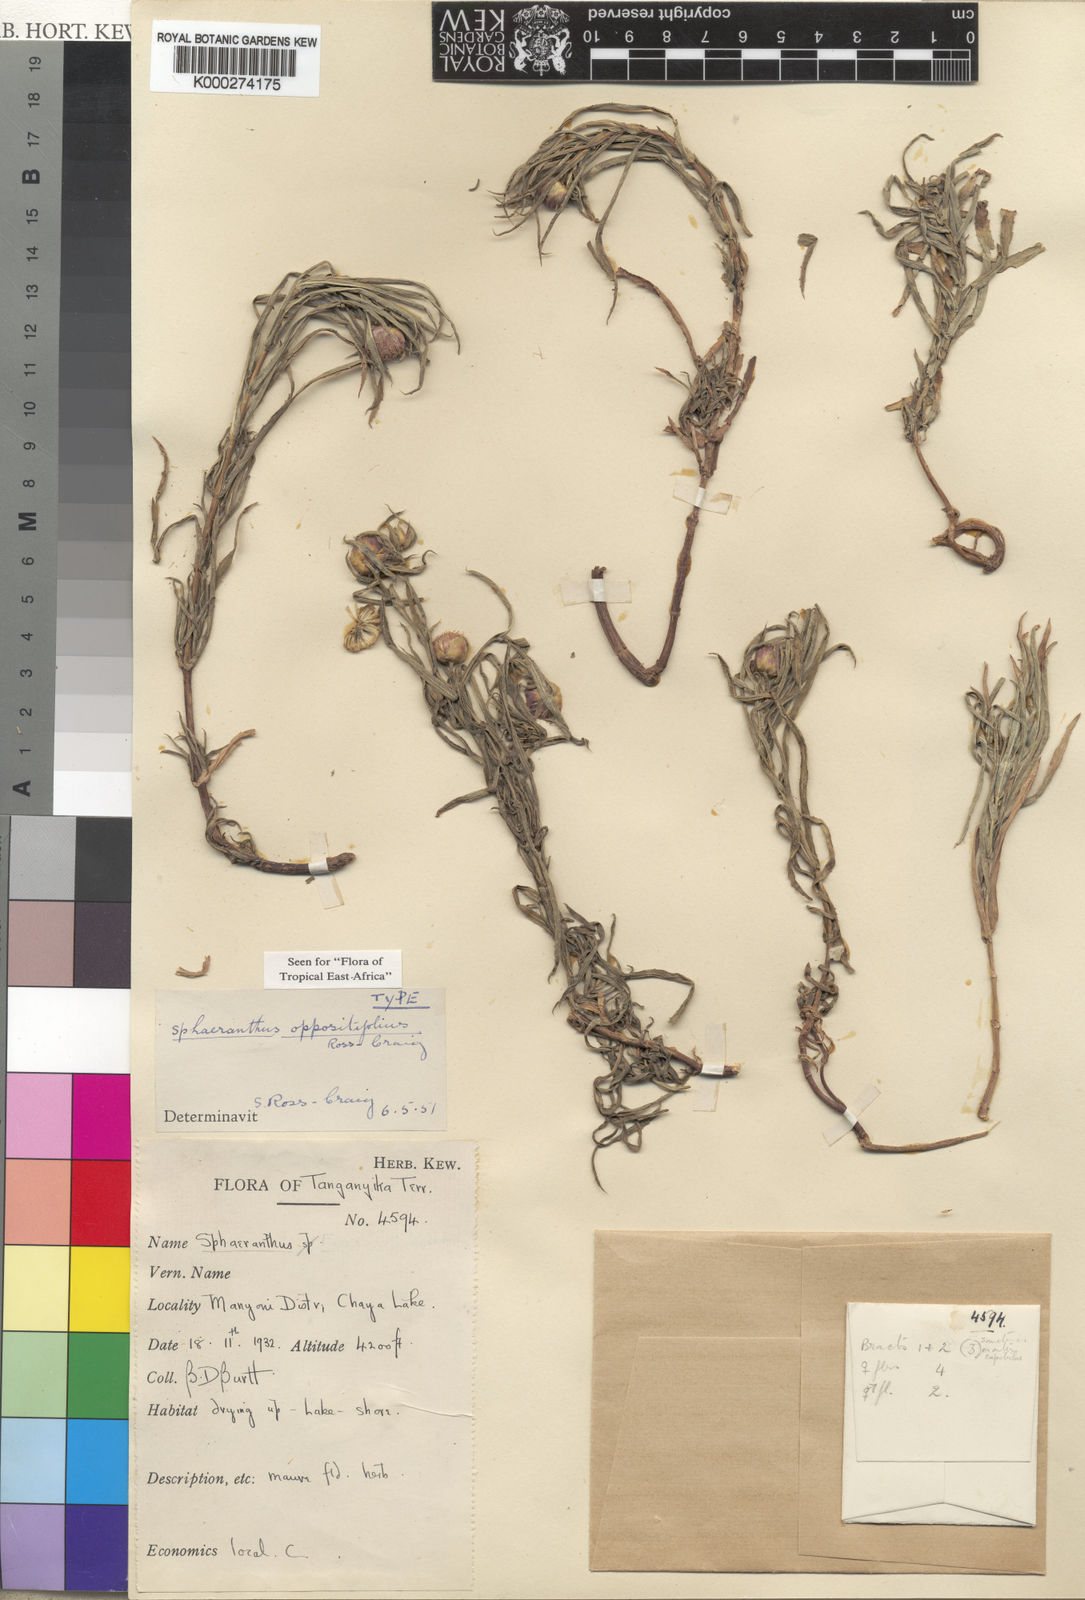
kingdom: Plantae
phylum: Tracheophyta
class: Magnoliopsida
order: Asterales
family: Asteraceae
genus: Sphaeranthus
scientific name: Sphaeranthus oppositifolius
